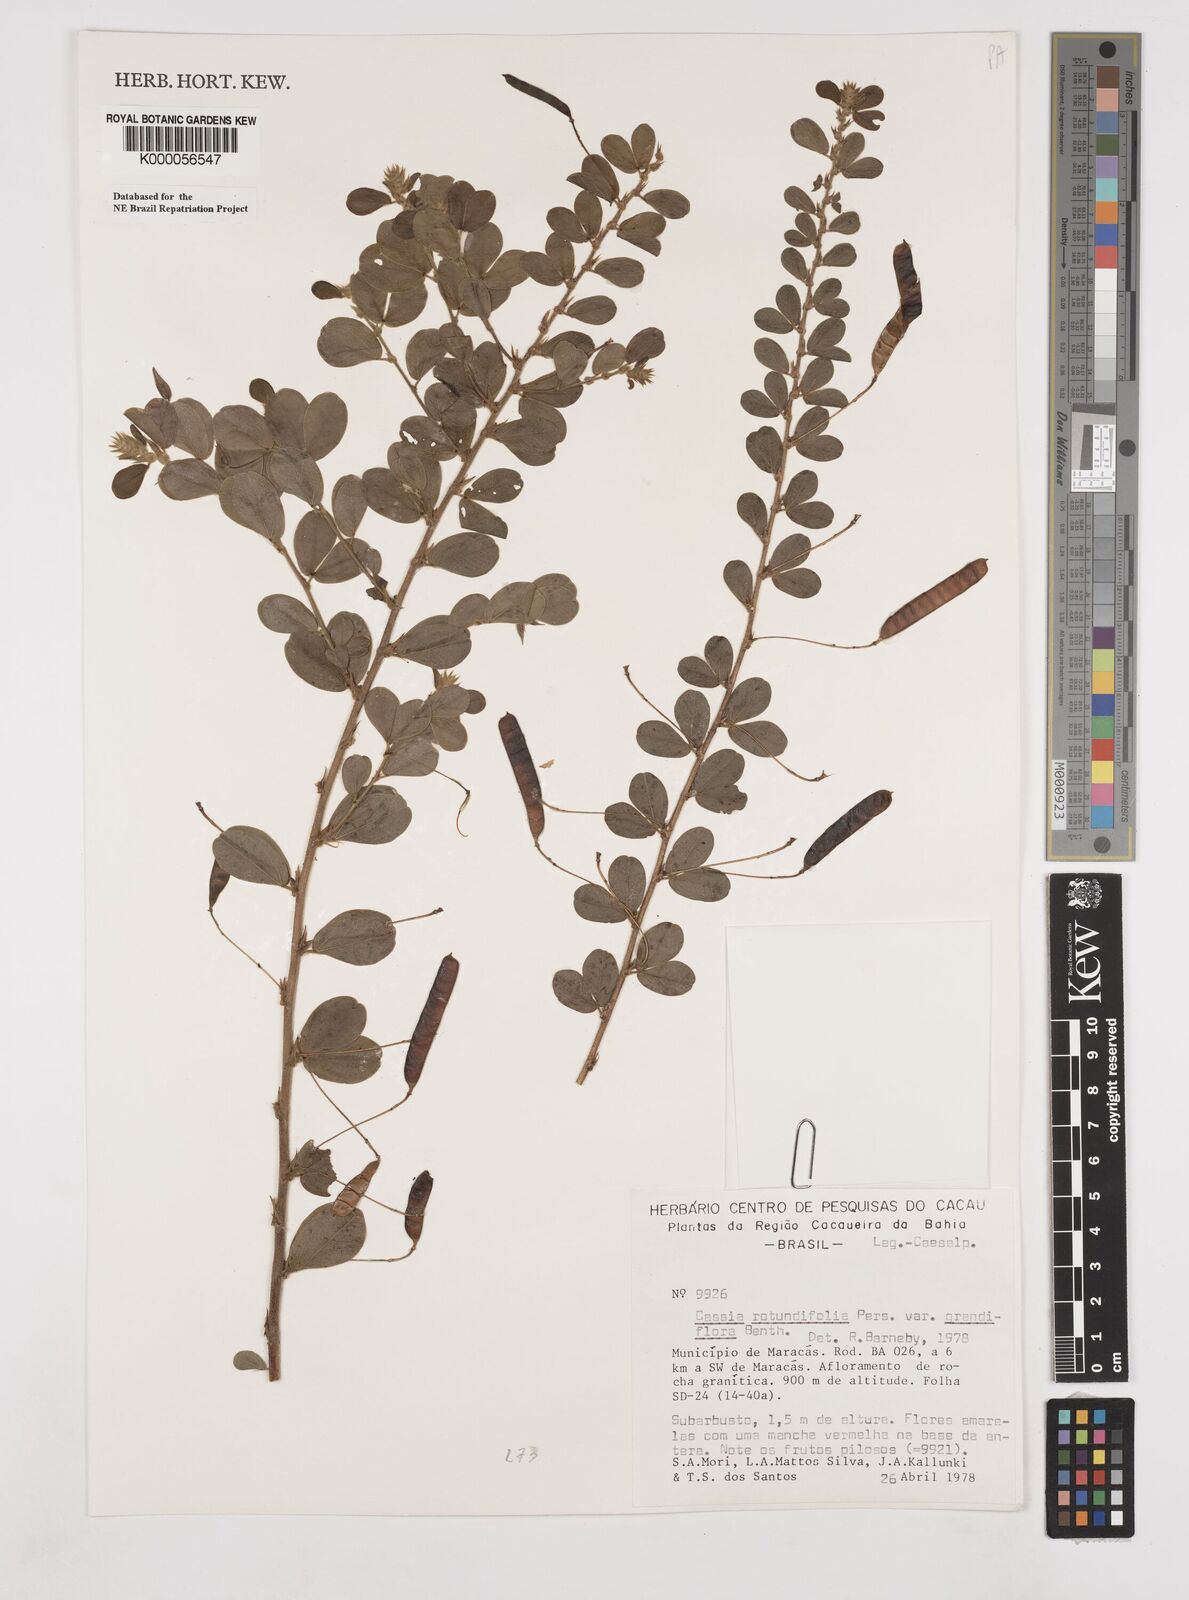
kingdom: Plantae
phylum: Tracheophyta
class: Magnoliopsida
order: Fabales
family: Fabaceae
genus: Chamaecrista
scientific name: Chamaecrista rotundifolia
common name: Round-leaf cassia
